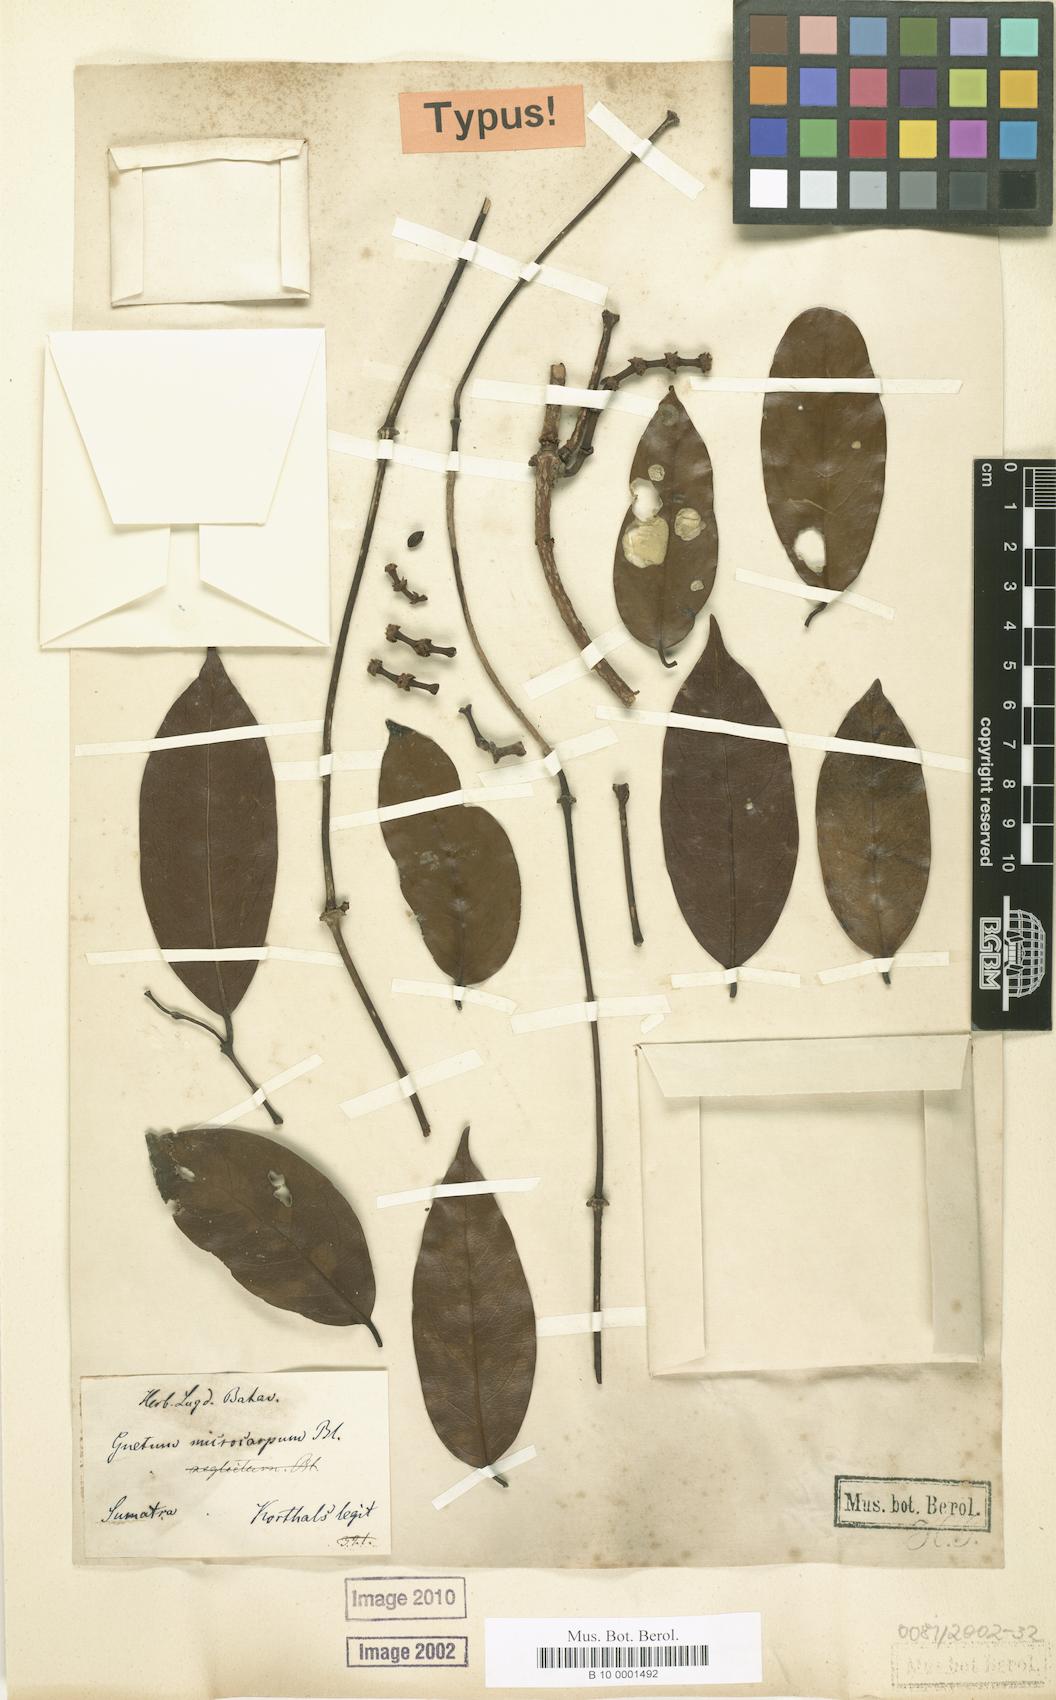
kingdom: Plantae
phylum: Tracheophyta
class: Gnetopsida
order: Gnetales
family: Gnetaceae
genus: Gnetum
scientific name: Gnetum microcarpum
